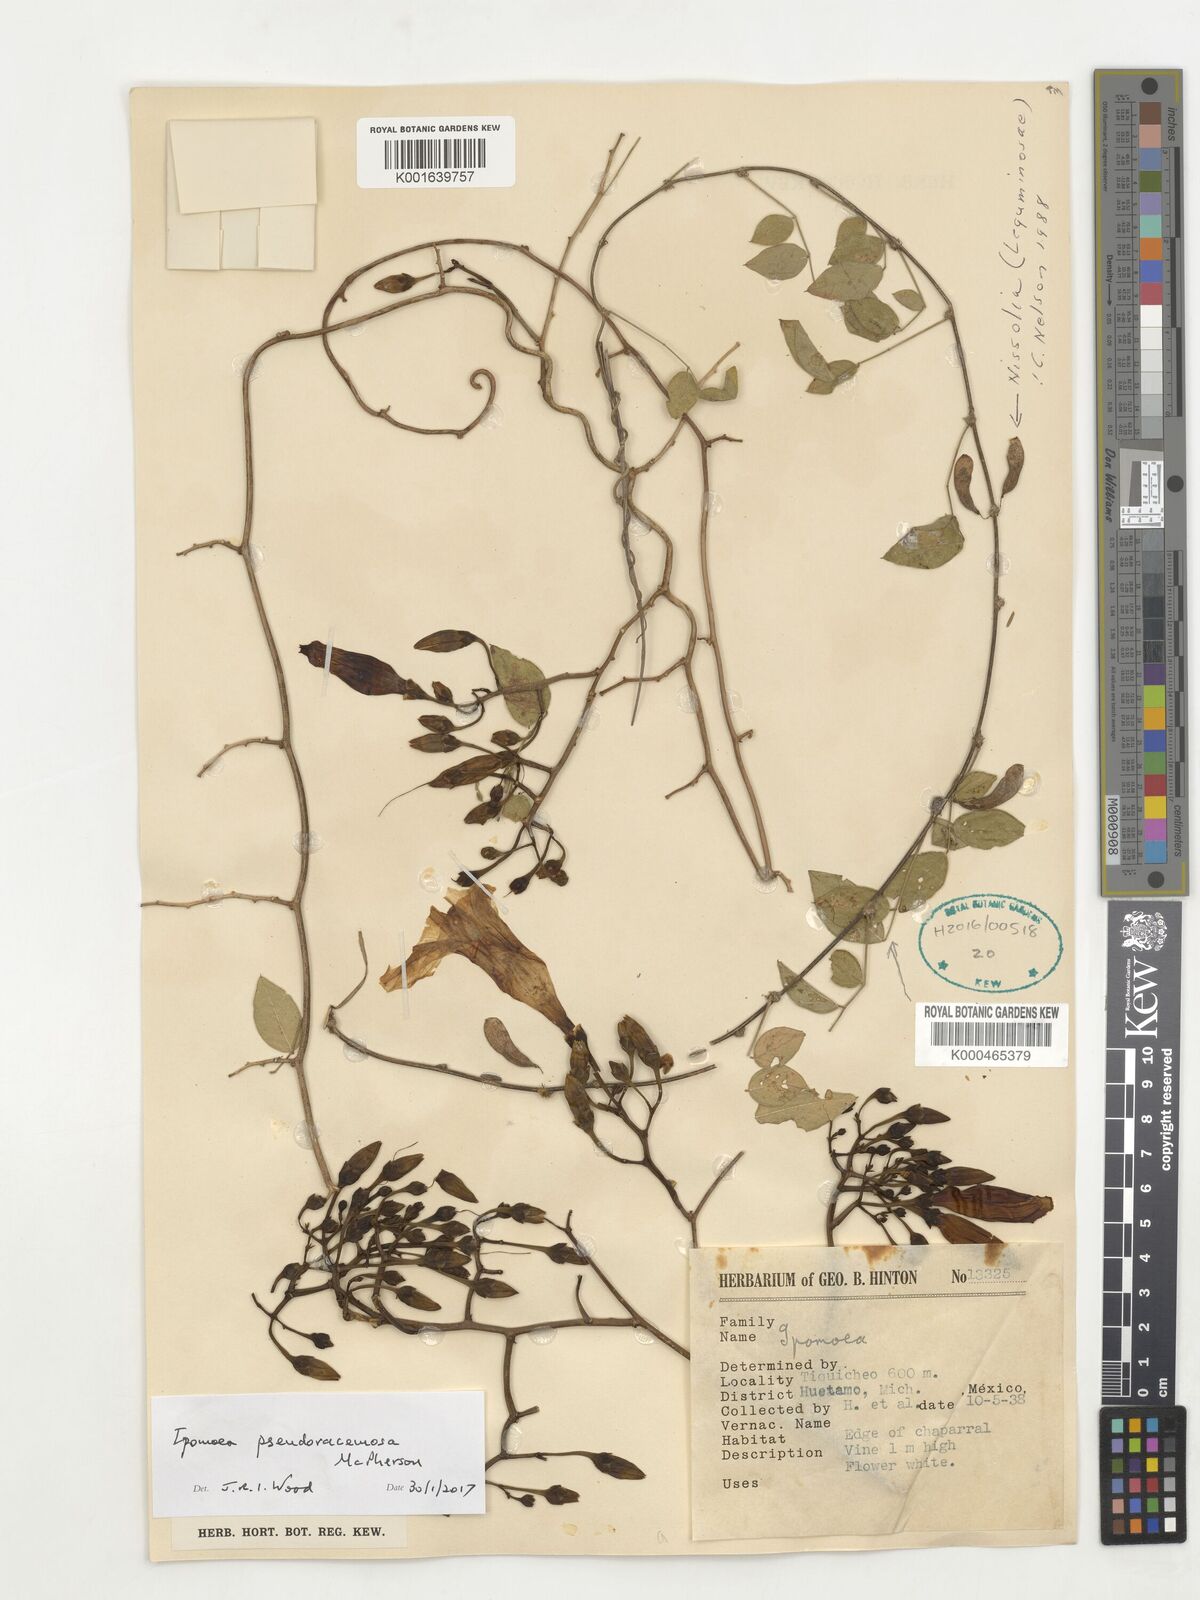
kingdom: Plantae
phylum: Tracheophyta
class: Magnoliopsida
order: Solanales
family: Convolvulaceae
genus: Ipomoea
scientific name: Ipomoea pseudoracemosa
